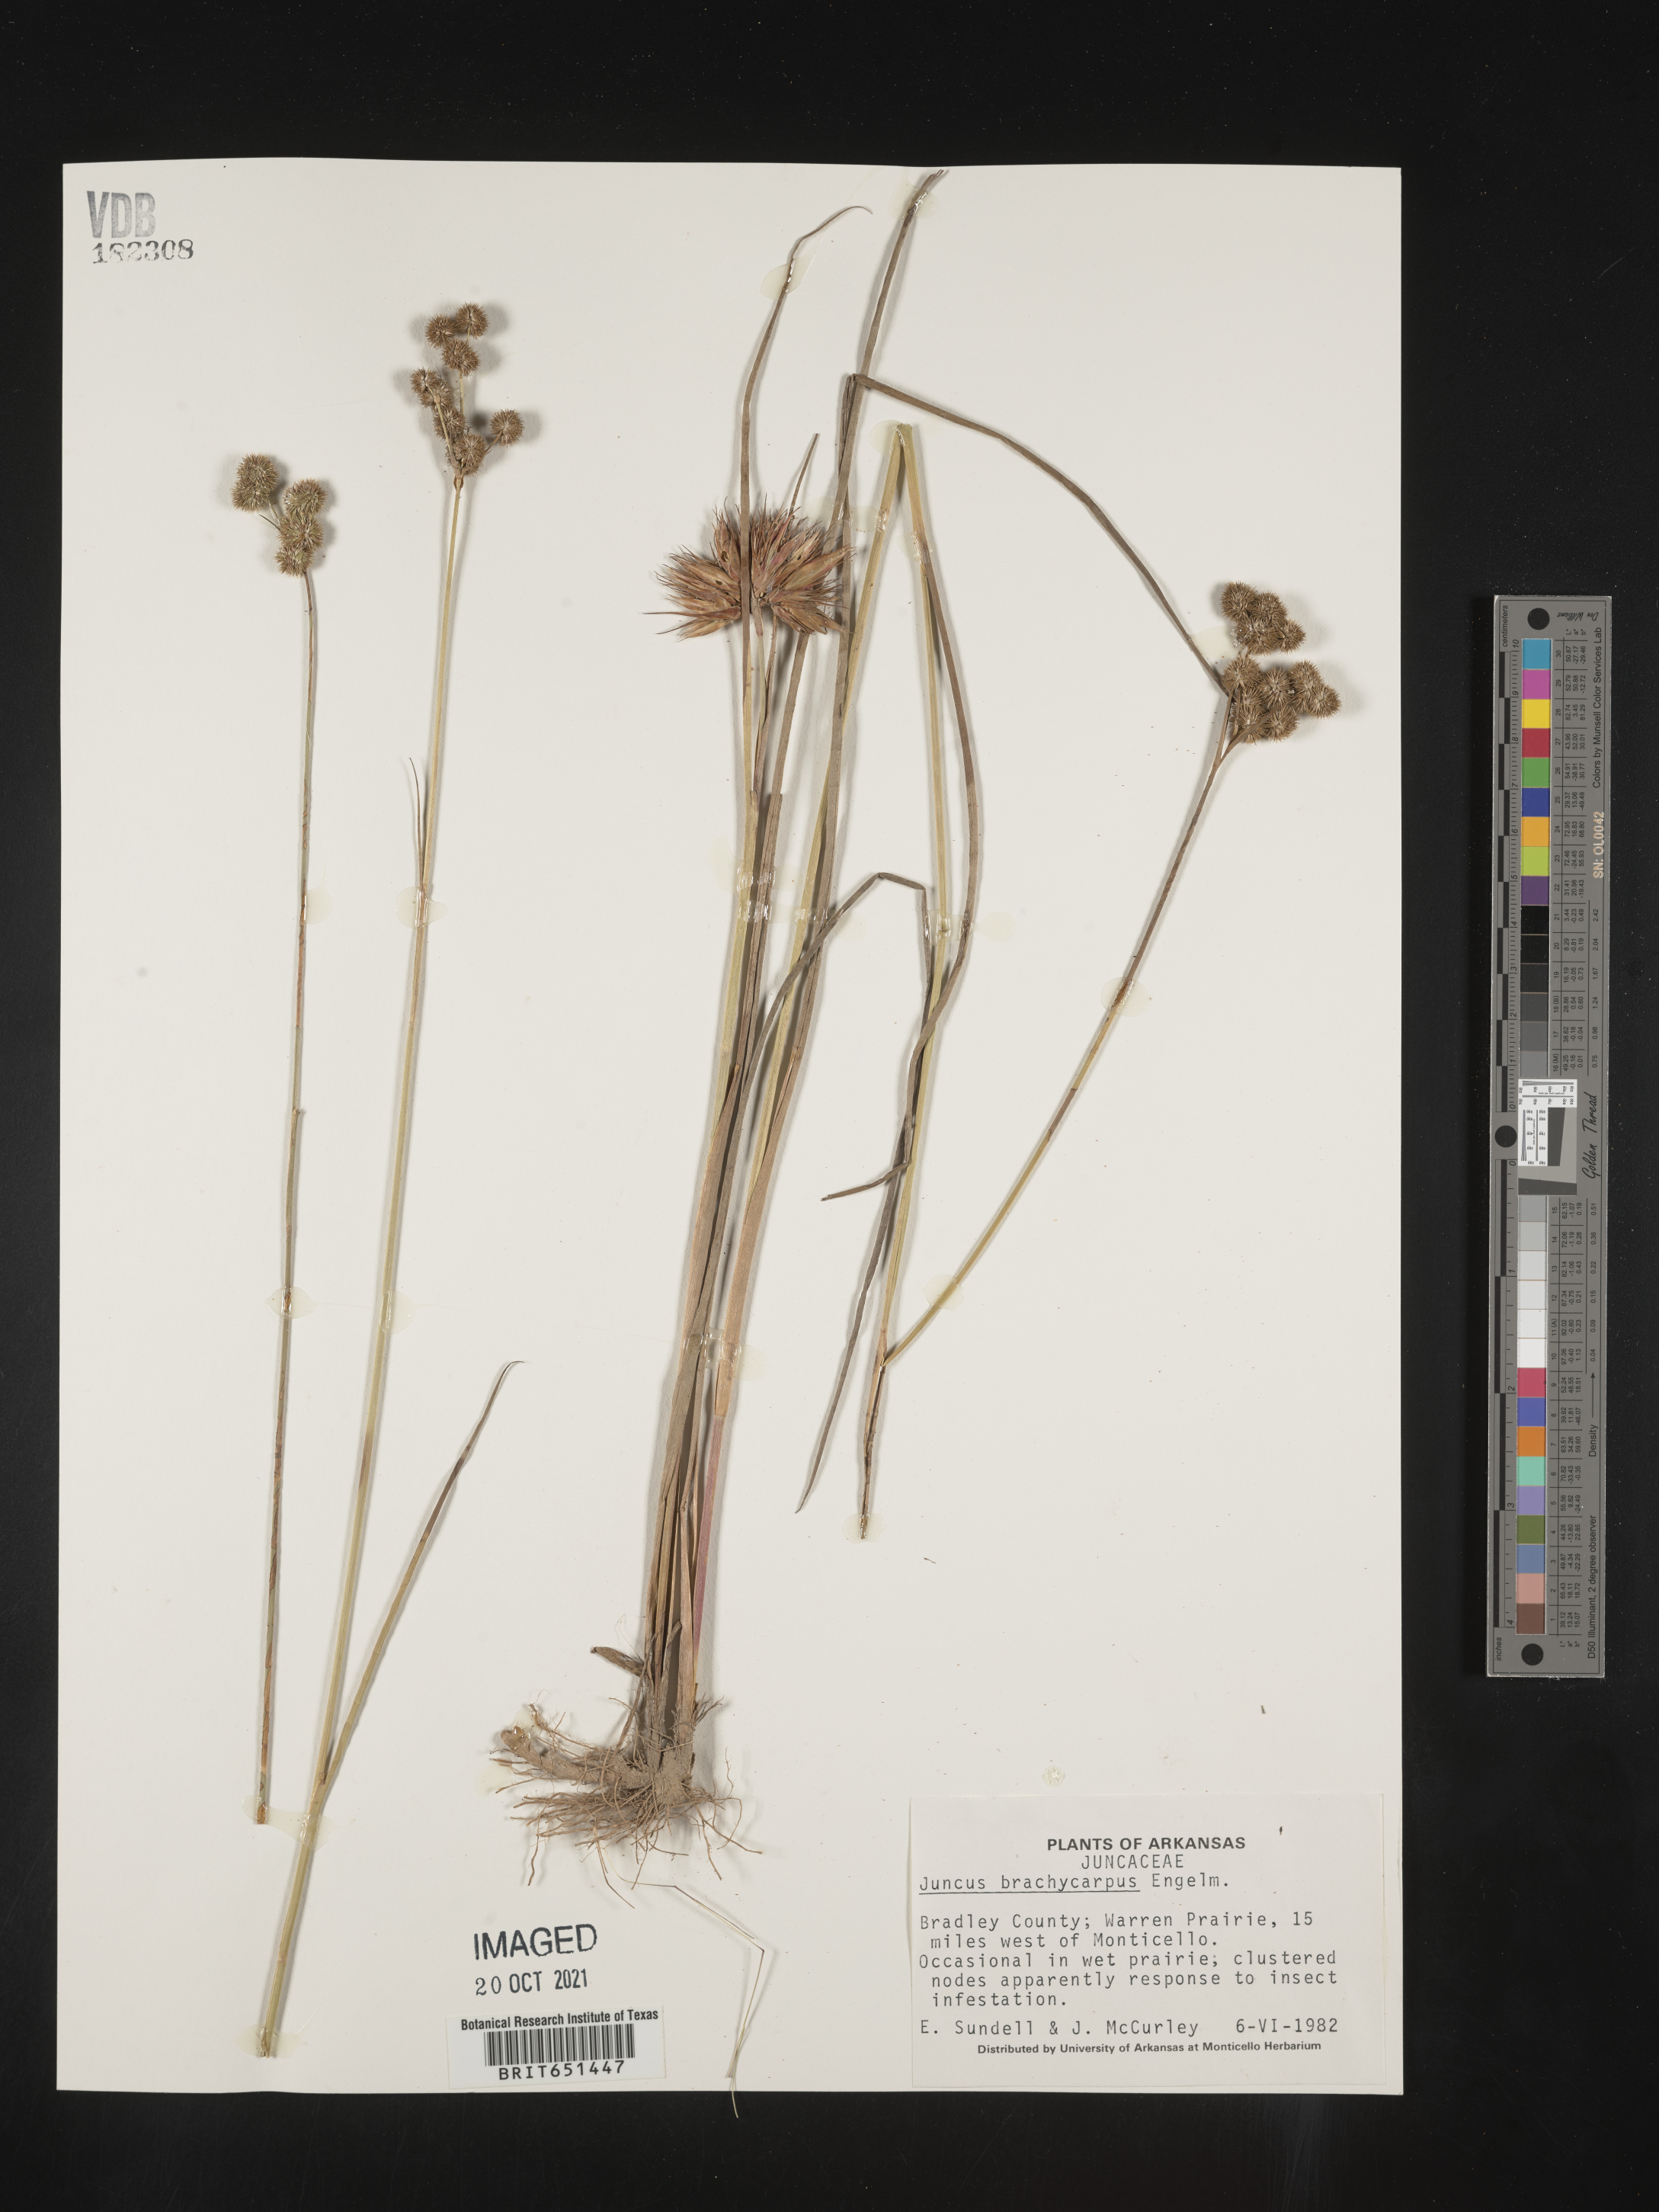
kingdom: Plantae
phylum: Tracheophyta
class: Liliopsida
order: Poales
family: Juncaceae
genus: Juncus
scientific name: Juncus brachycarpus
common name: Shore rush
